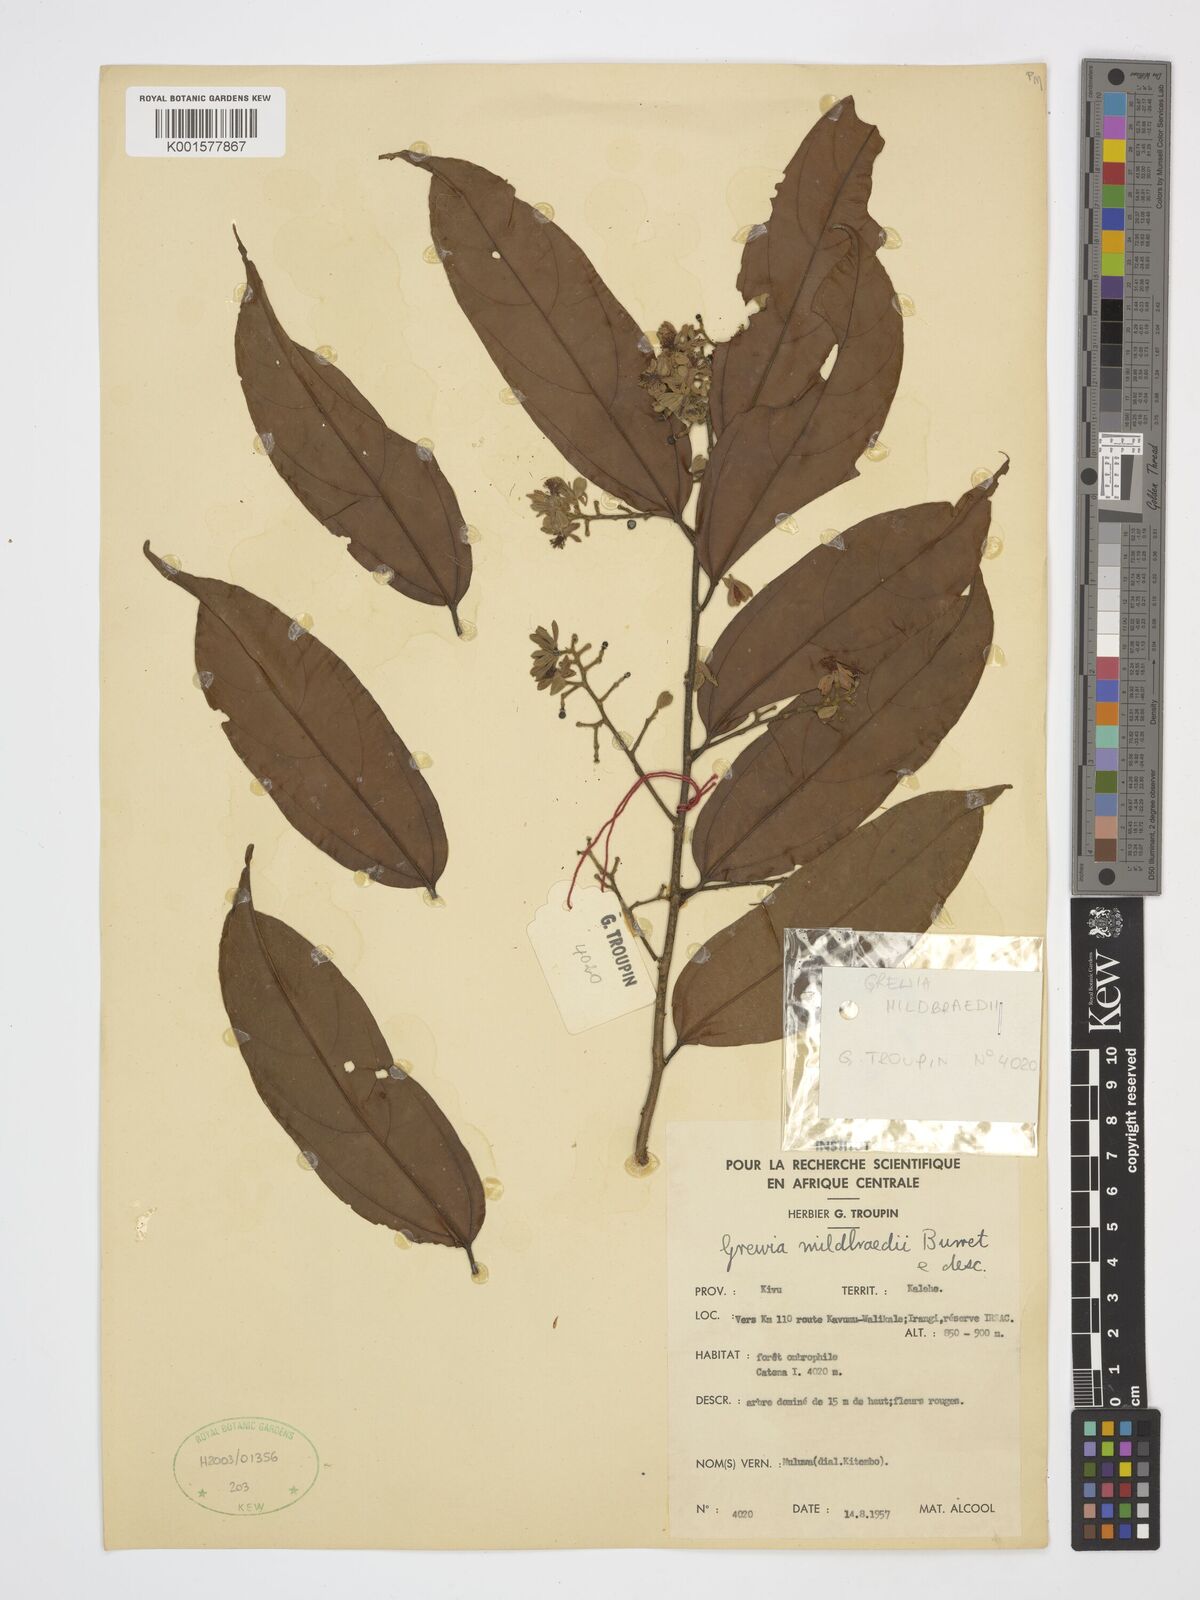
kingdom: Plantae
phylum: Tracheophyta
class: Magnoliopsida
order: Malvales
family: Malvaceae
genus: Microcos
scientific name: Microcos mildbraedii
